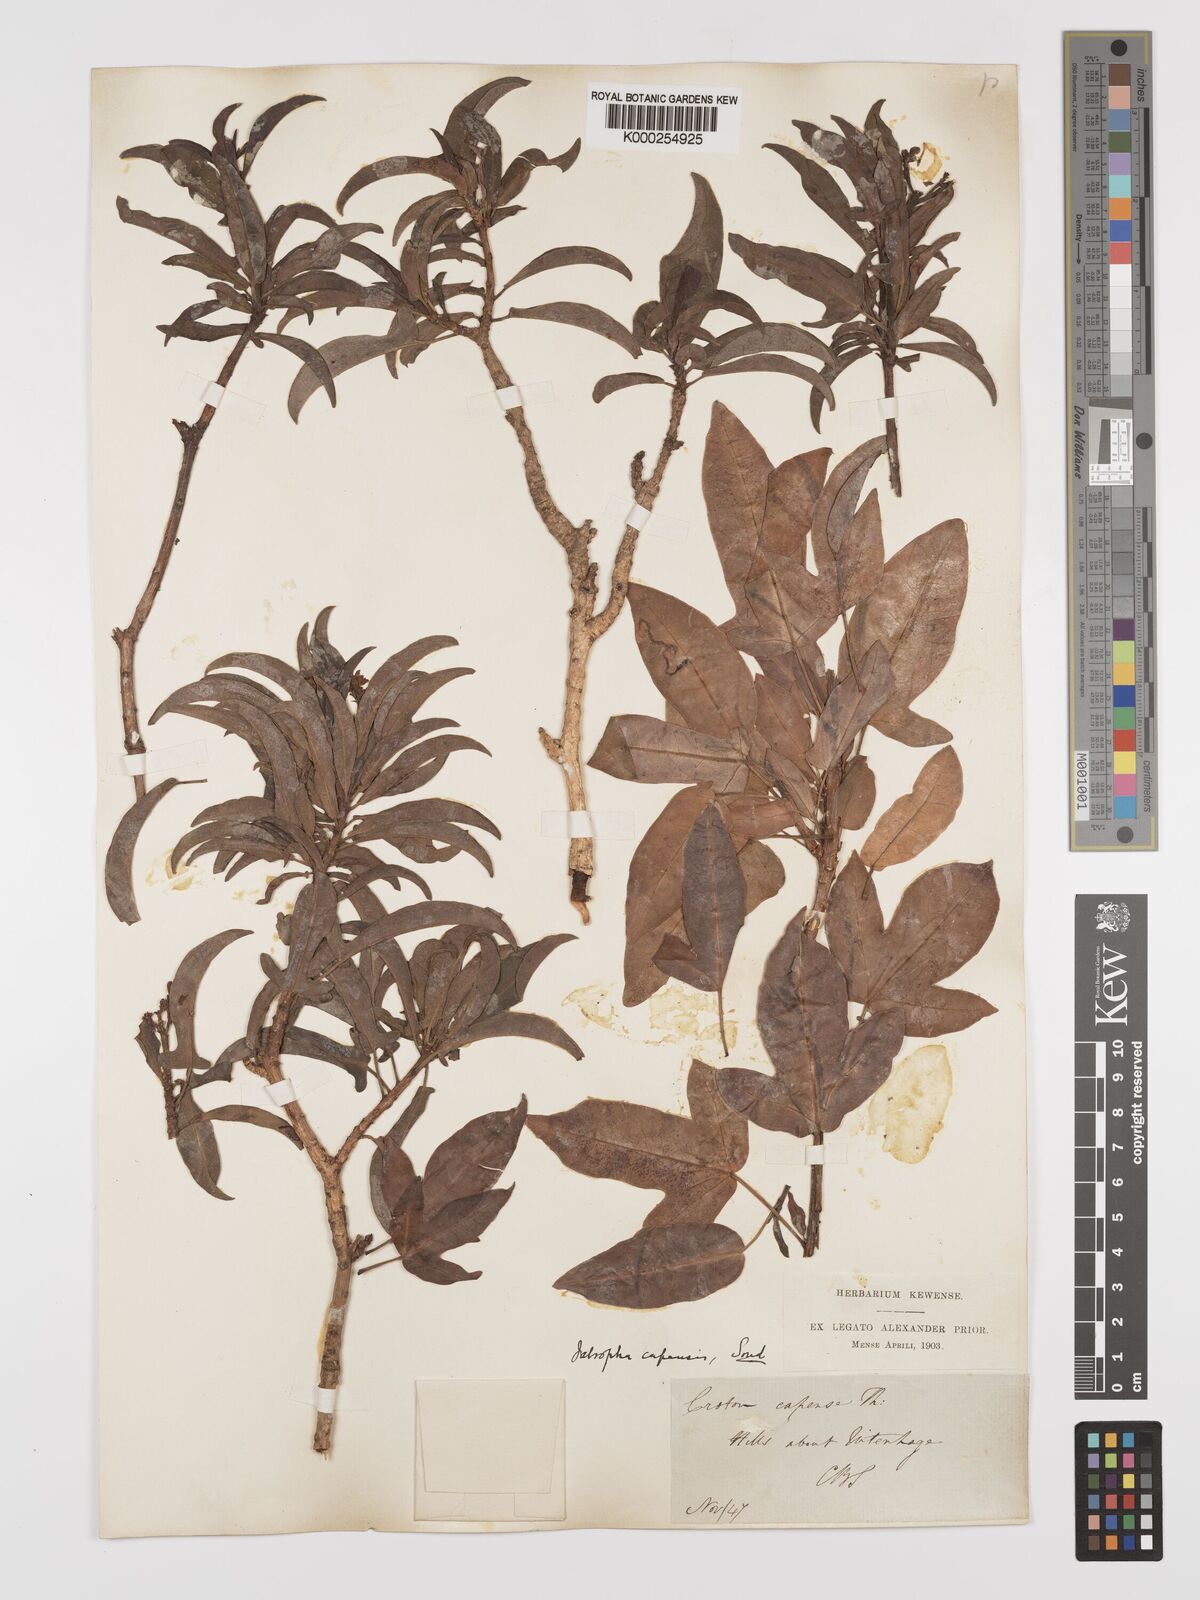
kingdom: Plantae
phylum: Tracheophyta
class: Magnoliopsida
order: Malpighiales
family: Euphorbiaceae
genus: Jatropha
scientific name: Jatropha capensis
